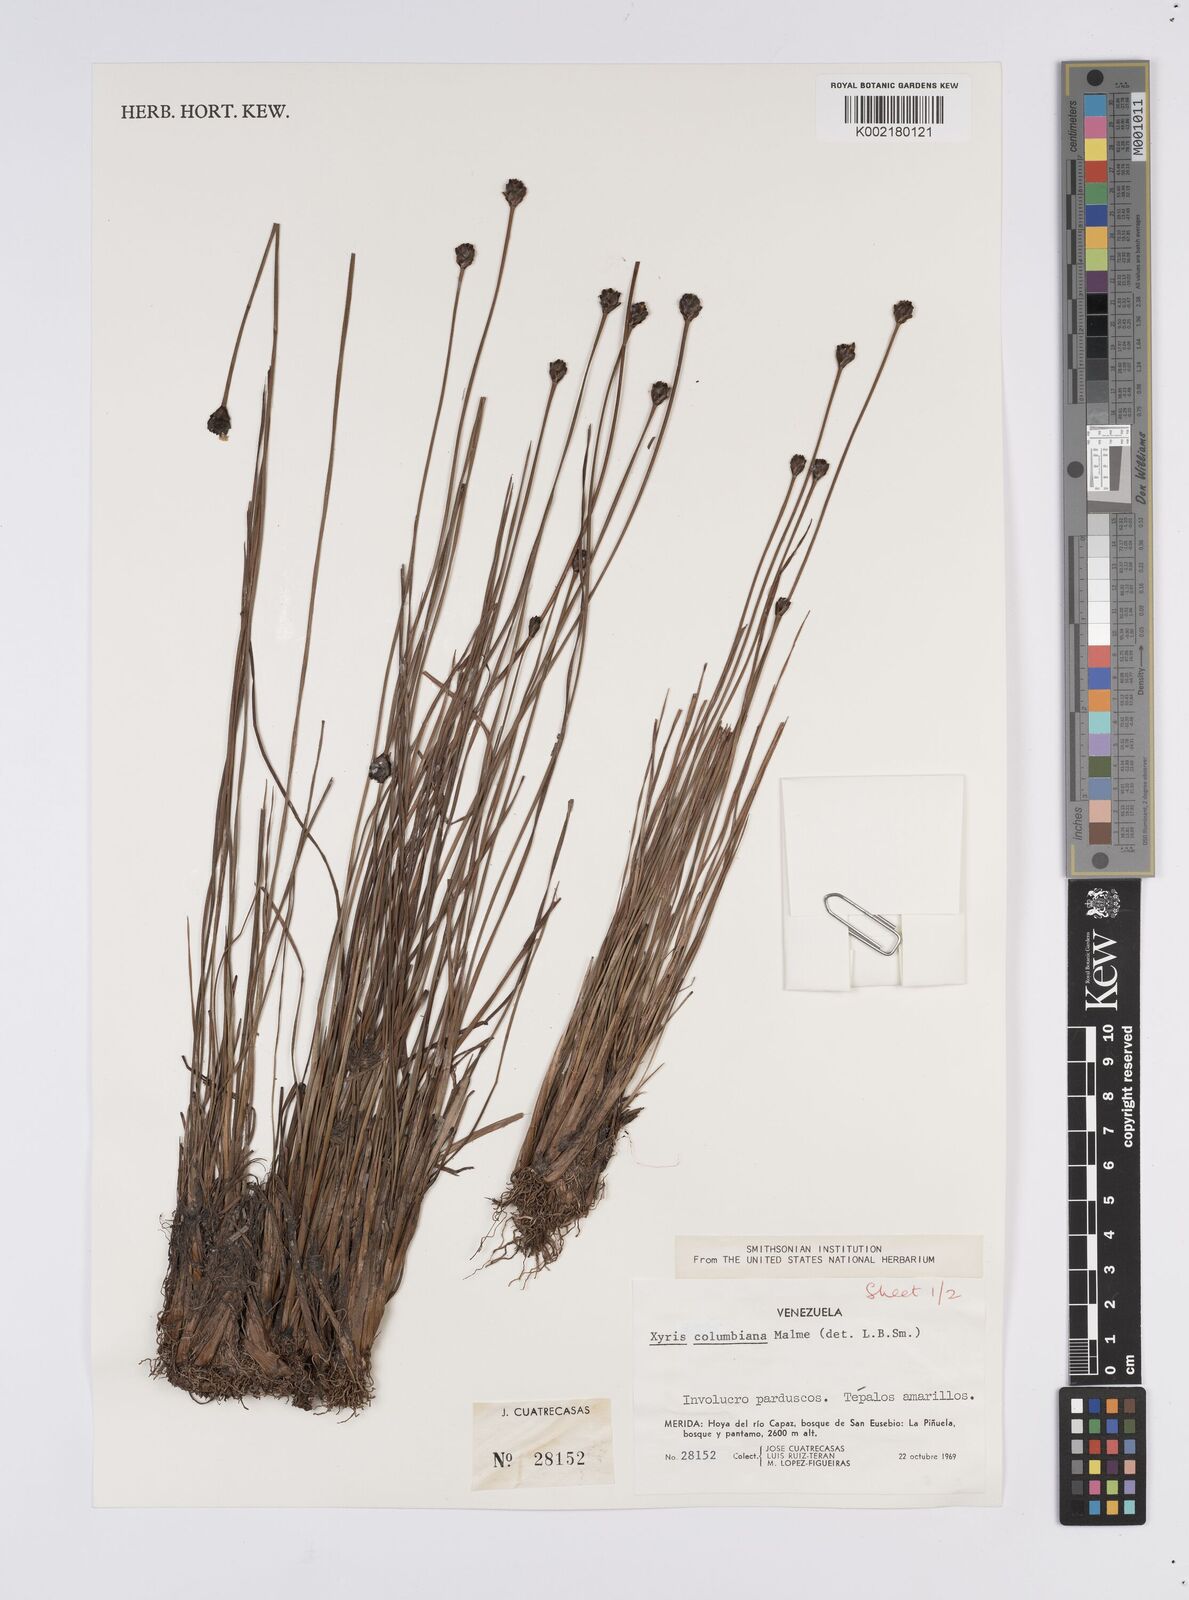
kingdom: Plantae
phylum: Tracheophyta
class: Liliopsida
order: Poales
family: Xyridaceae
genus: Xyris
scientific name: Xyris columbiana
